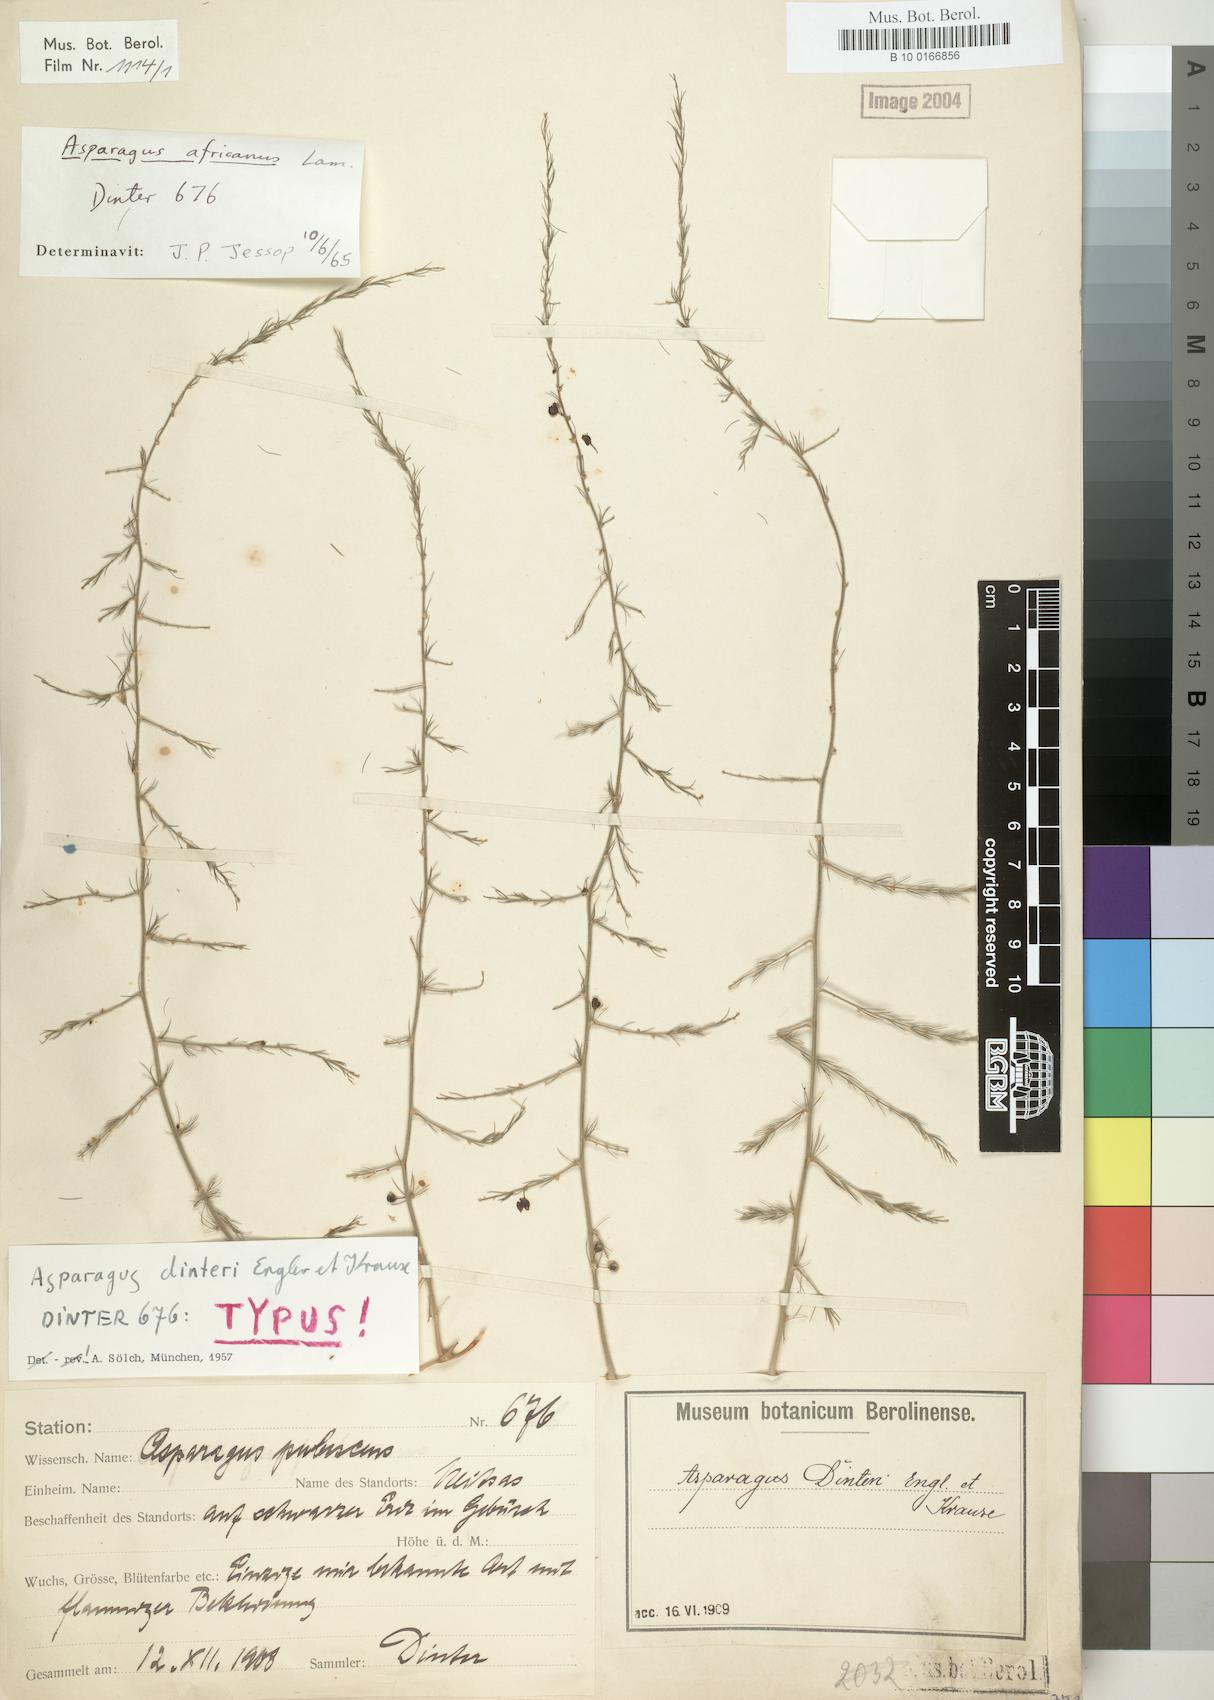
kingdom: Plantae
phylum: Tracheophyta
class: Liliopsida
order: Asparagales
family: Asparagaceae
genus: Asparagus
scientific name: Asparagus africanus
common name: Asparagus-fern
